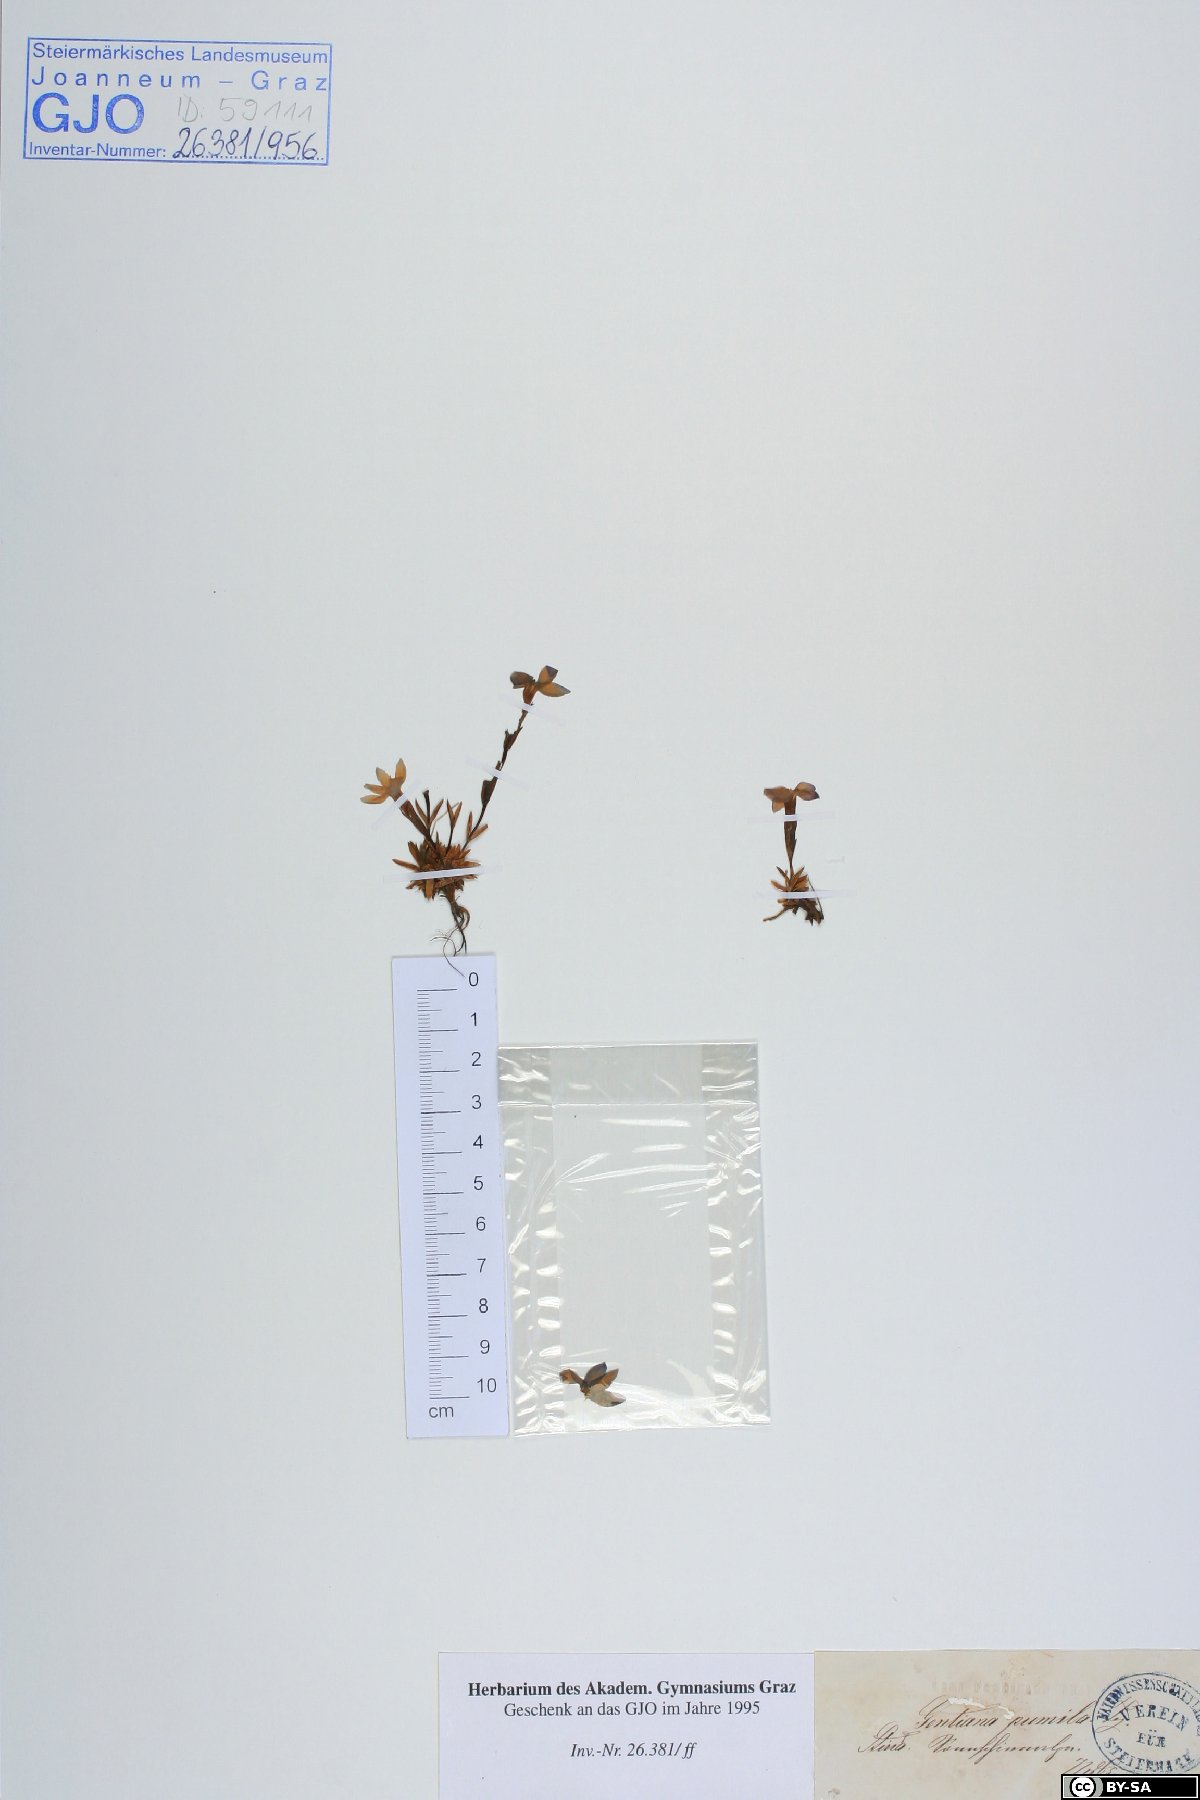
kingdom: Plantae
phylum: Tracheophyta
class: Magnoliopsida
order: Gentianales
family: Gentianaceae
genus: Gentiana
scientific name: Gentiana pumila
